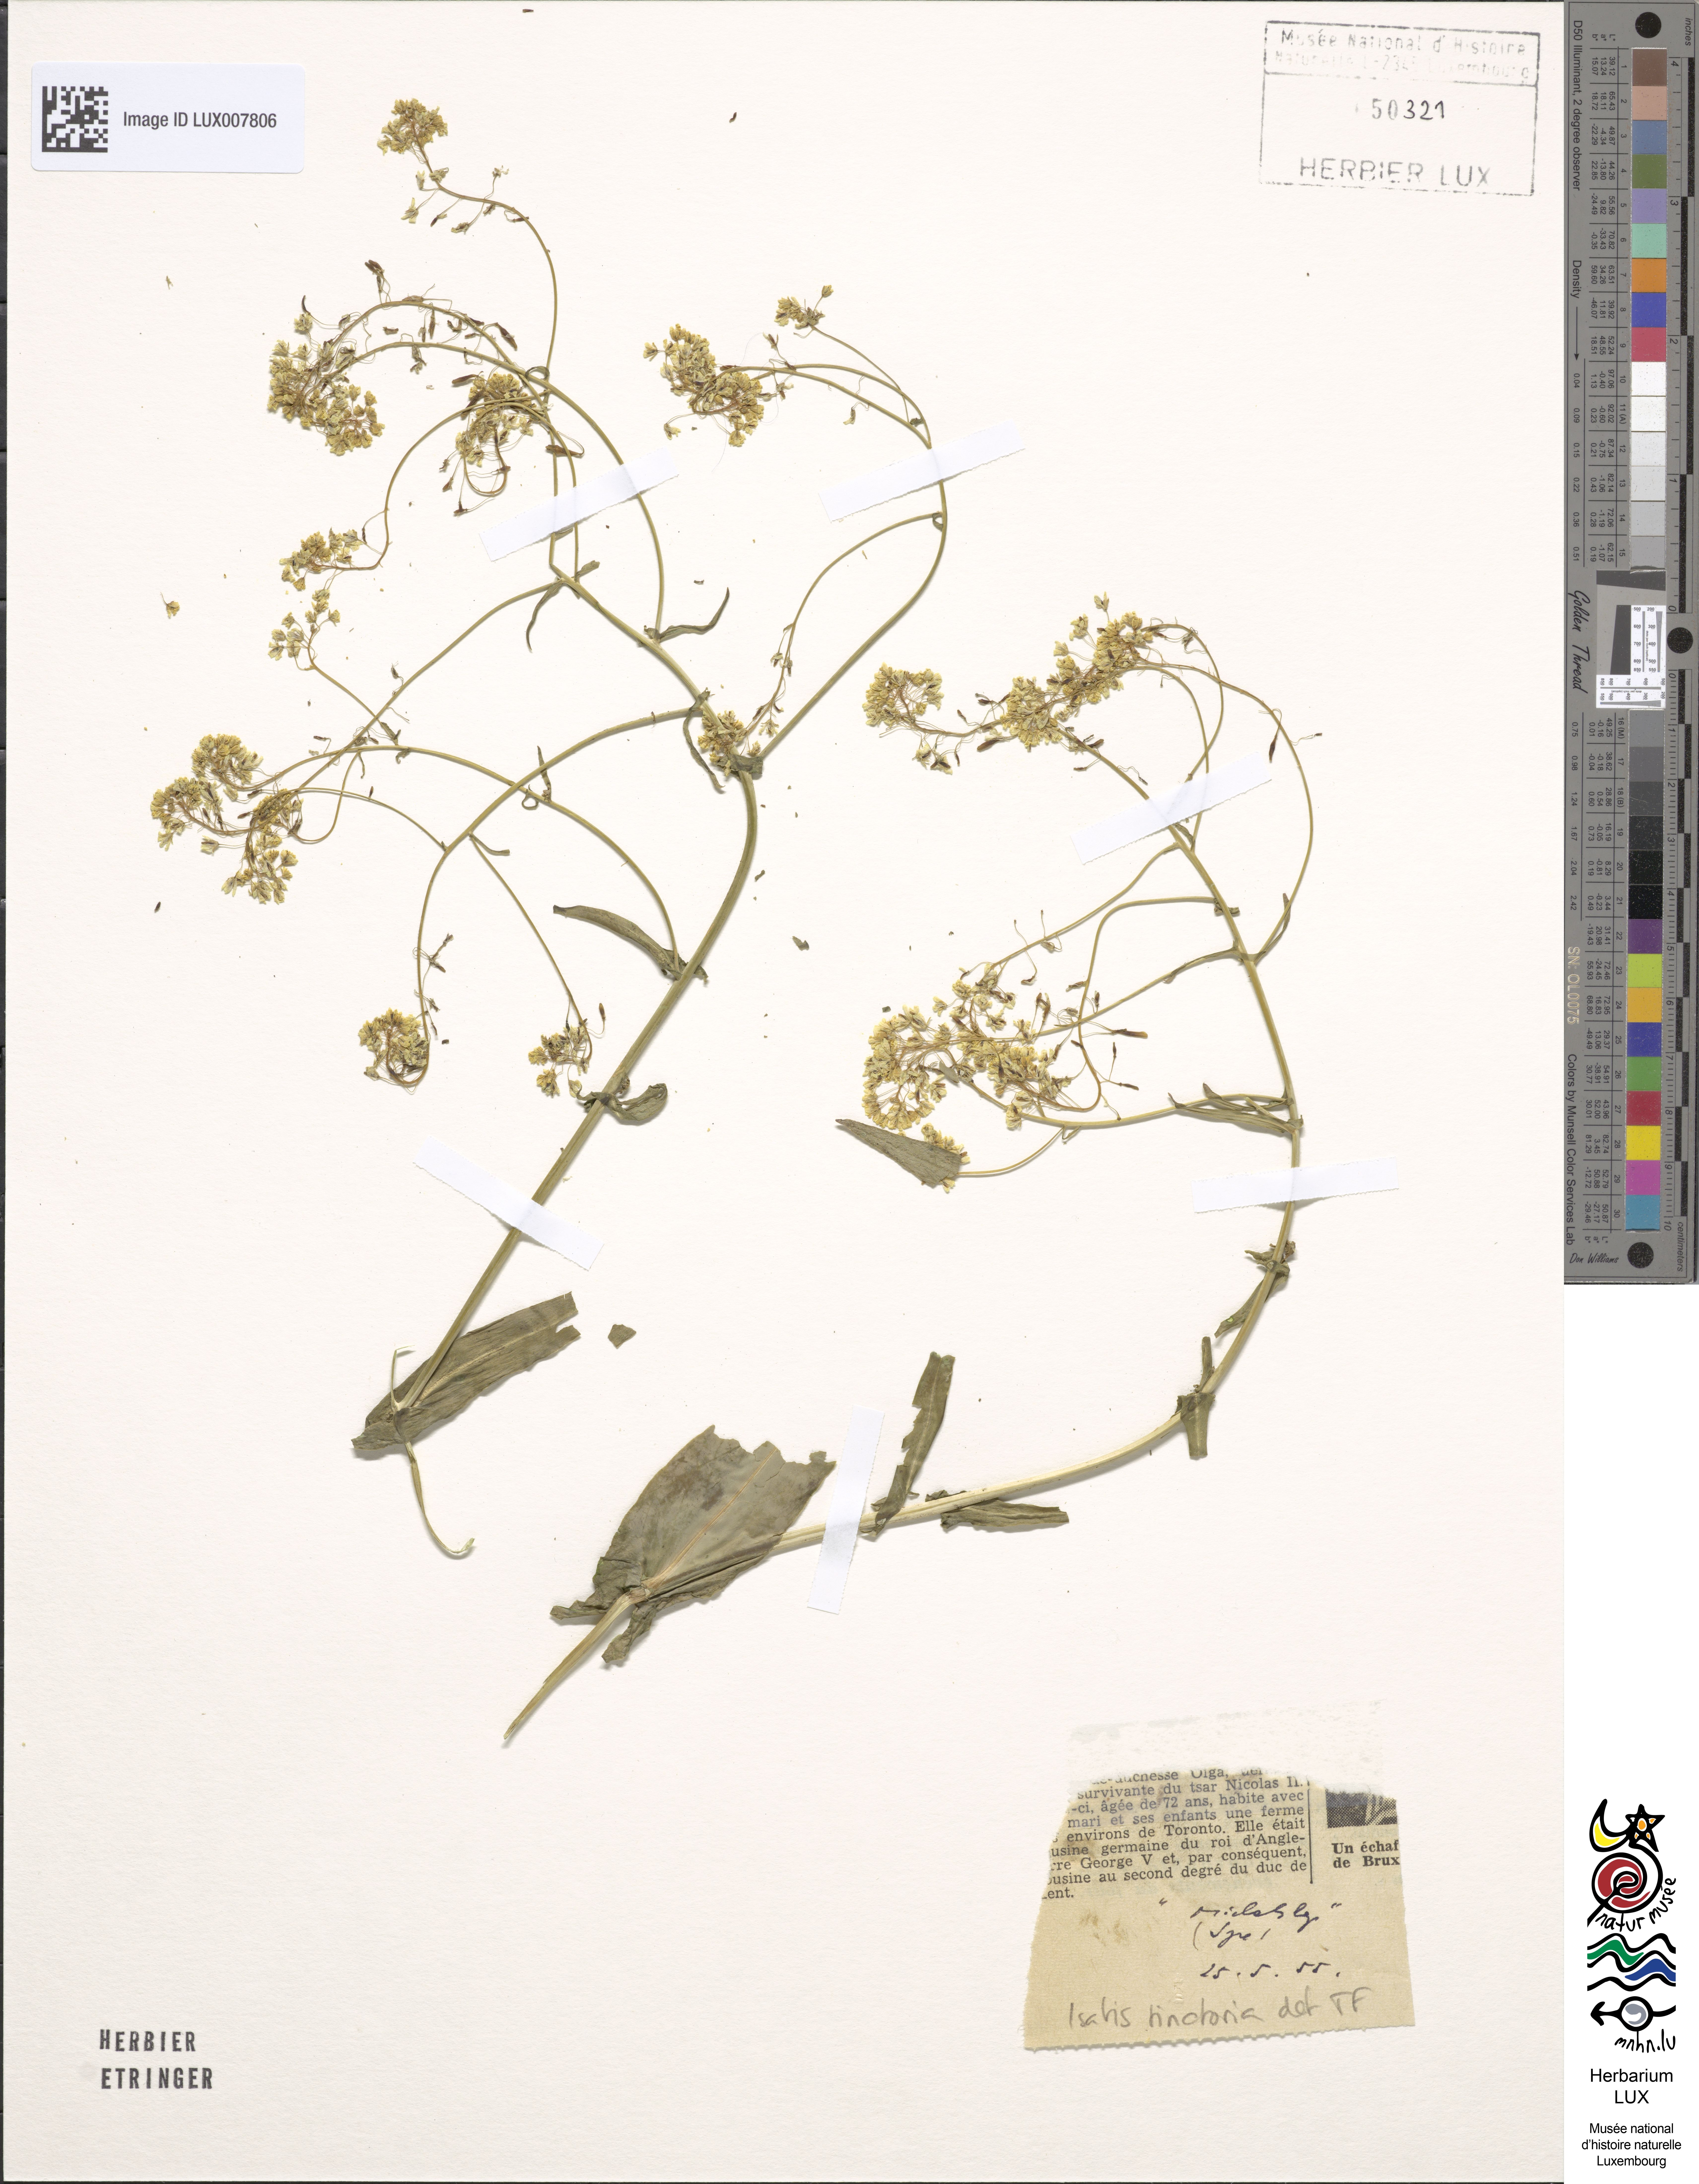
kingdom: Plantae
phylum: Tracheophyta
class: Magnoliopsida
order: Brassicales
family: Brassicaceae
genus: Isatis
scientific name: Isatis tinctoria
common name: Woad
